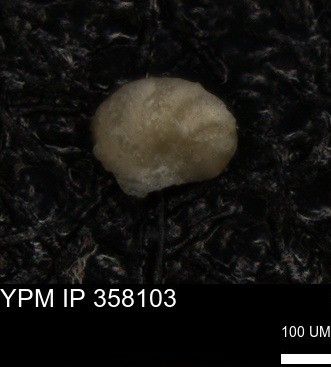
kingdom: Chromista
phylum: Foraminifera
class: Globothalamea
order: Rotaliida
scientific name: Rotaliida
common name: forams
